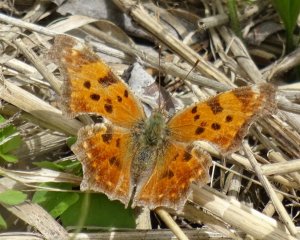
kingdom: Animalia
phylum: Arthropoda
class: Insecta
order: Lepidoptera
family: Nymphalidae
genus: Polygonia
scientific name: Polygonia comma
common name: Eastern Comma
